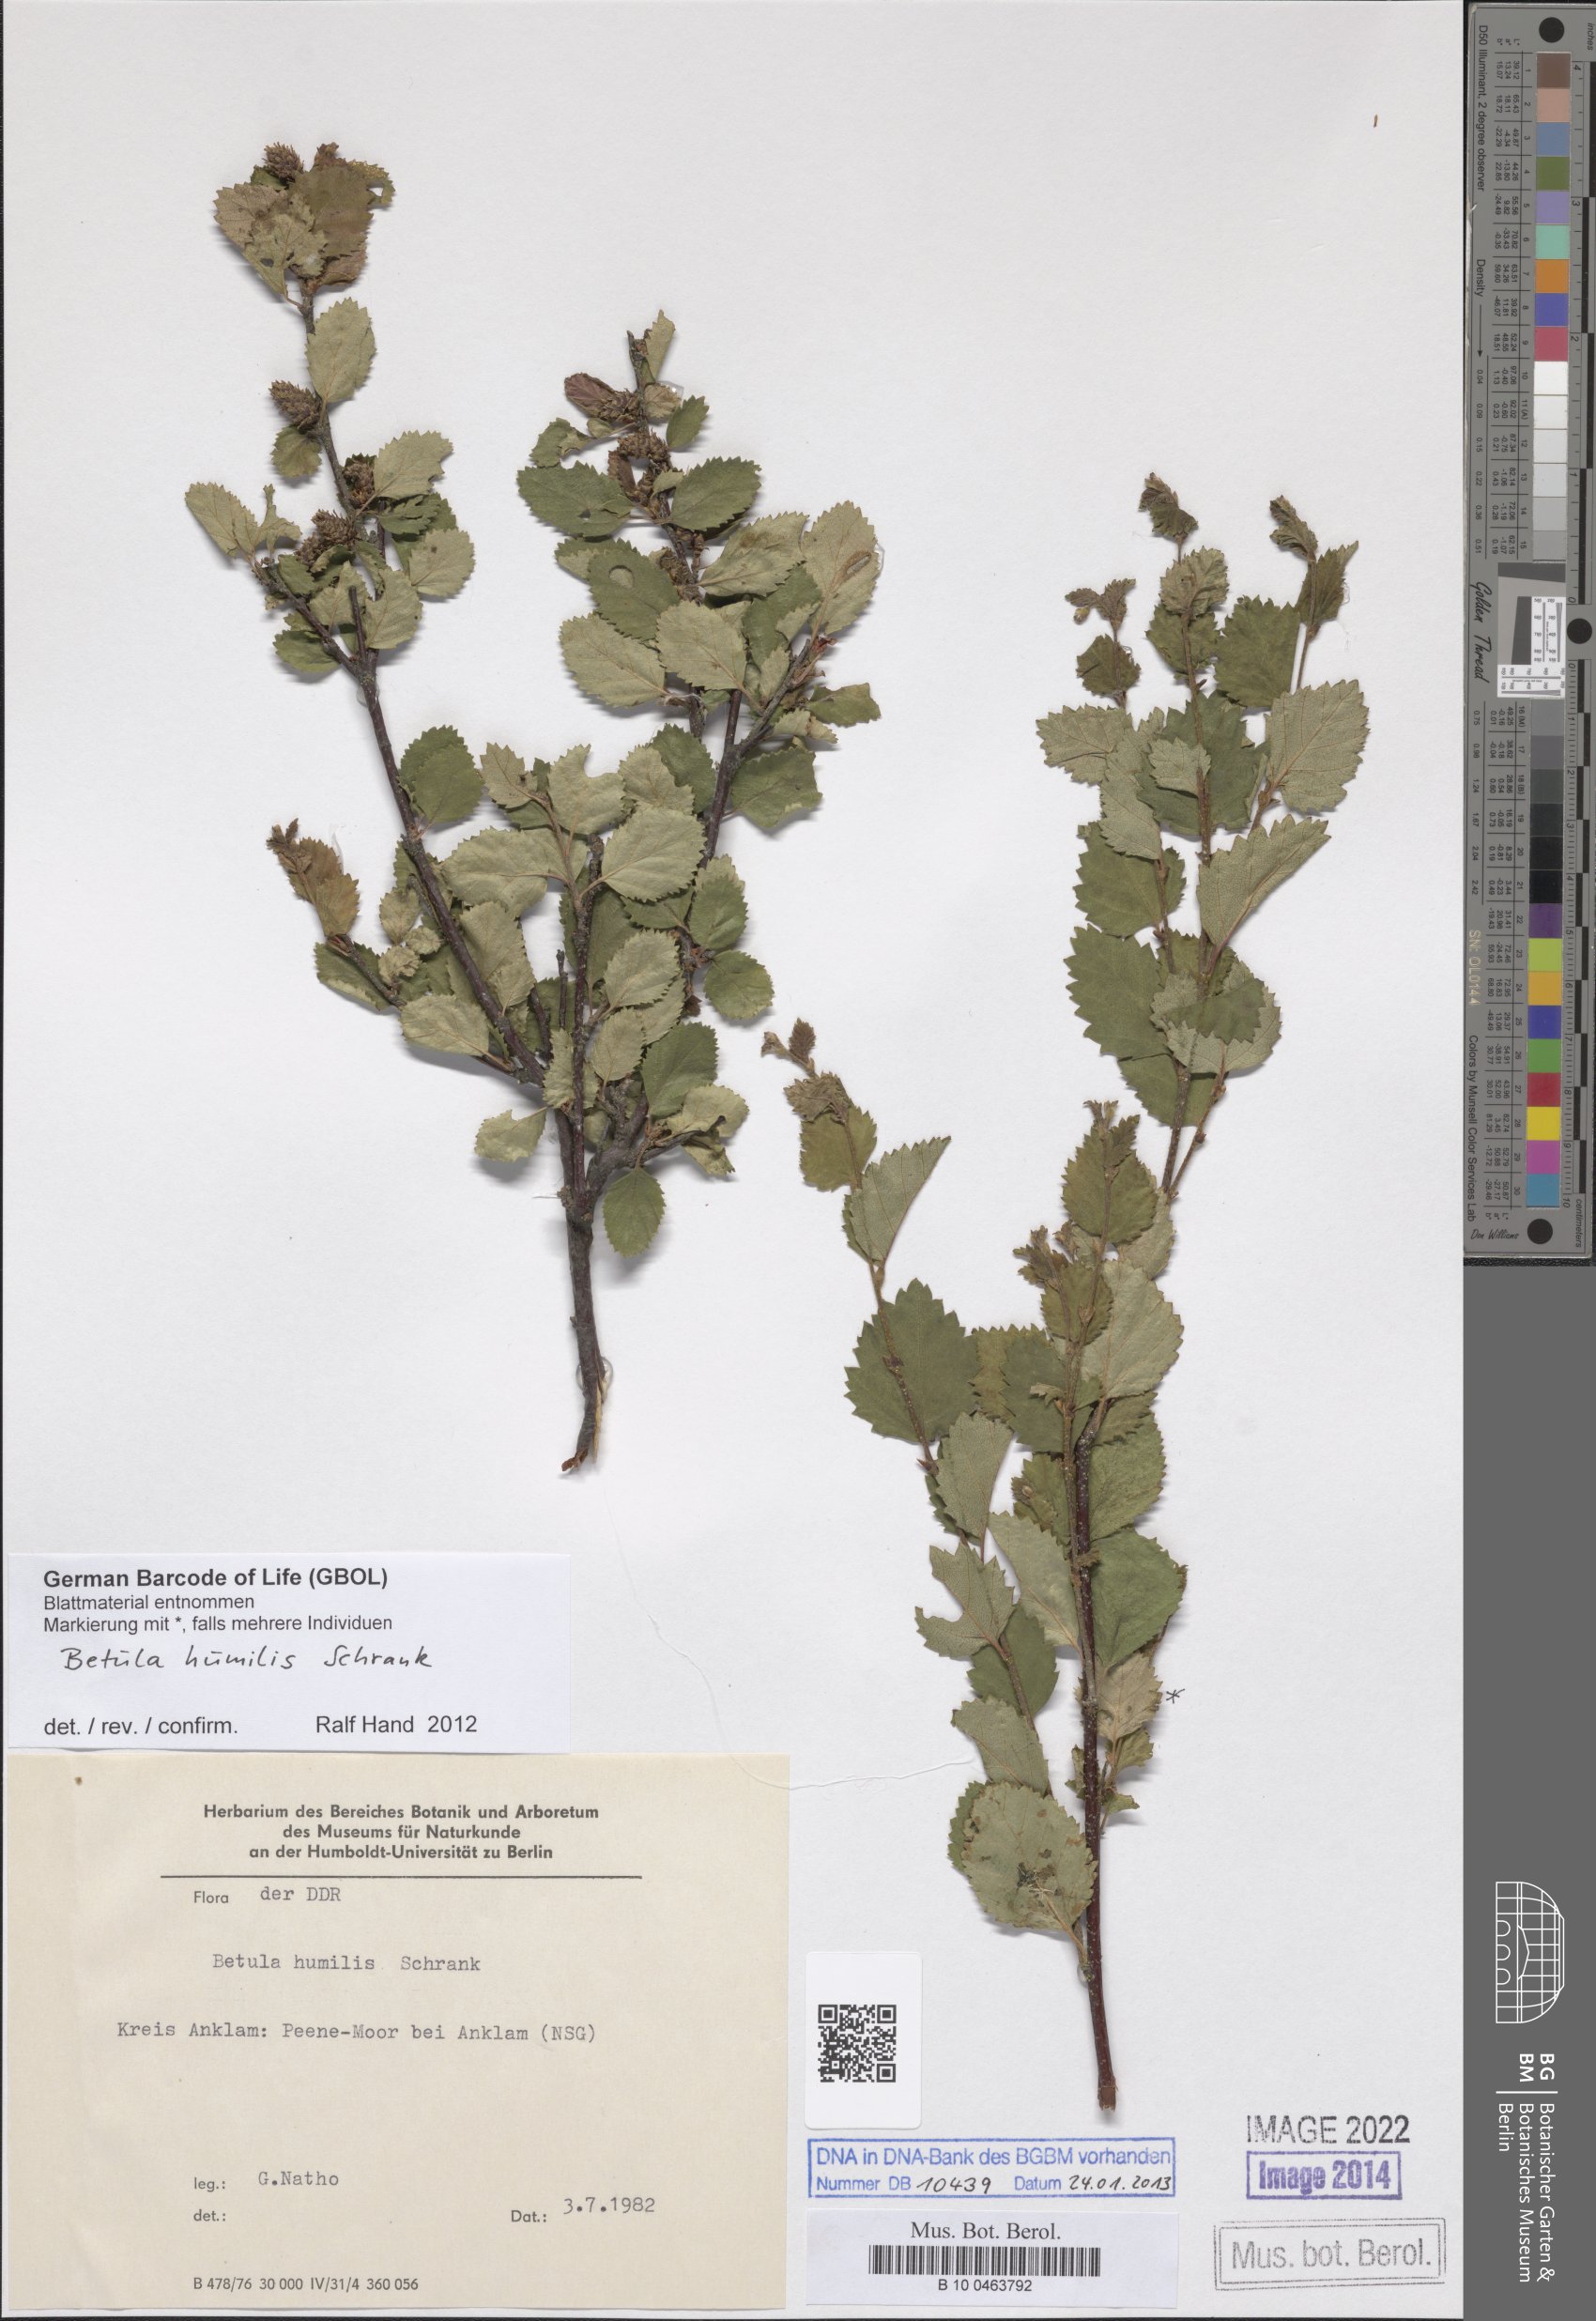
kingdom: Plantae
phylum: Tracheophyta
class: Magnoliopsida
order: Fagales
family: Betulaceae
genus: Betula
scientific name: Betula humilis
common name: Shrubby birch
